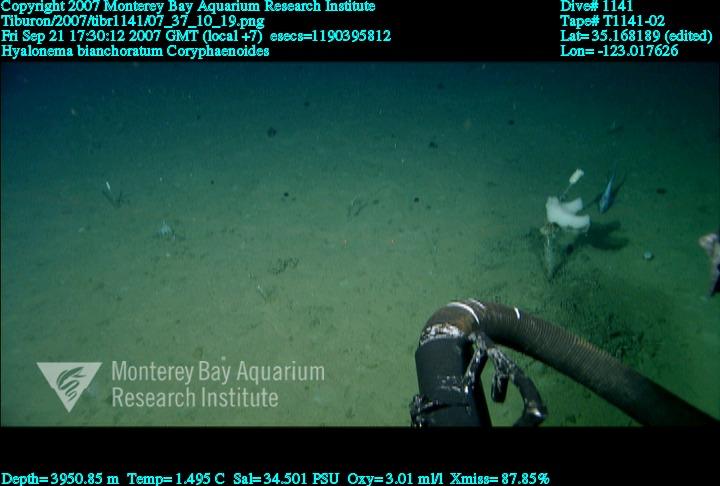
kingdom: Animalia
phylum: Porifera
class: Hexactinellida
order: Amphidiscosida
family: Hyalonematidae
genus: Hyalonema
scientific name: Hyalonema bianchoratum
